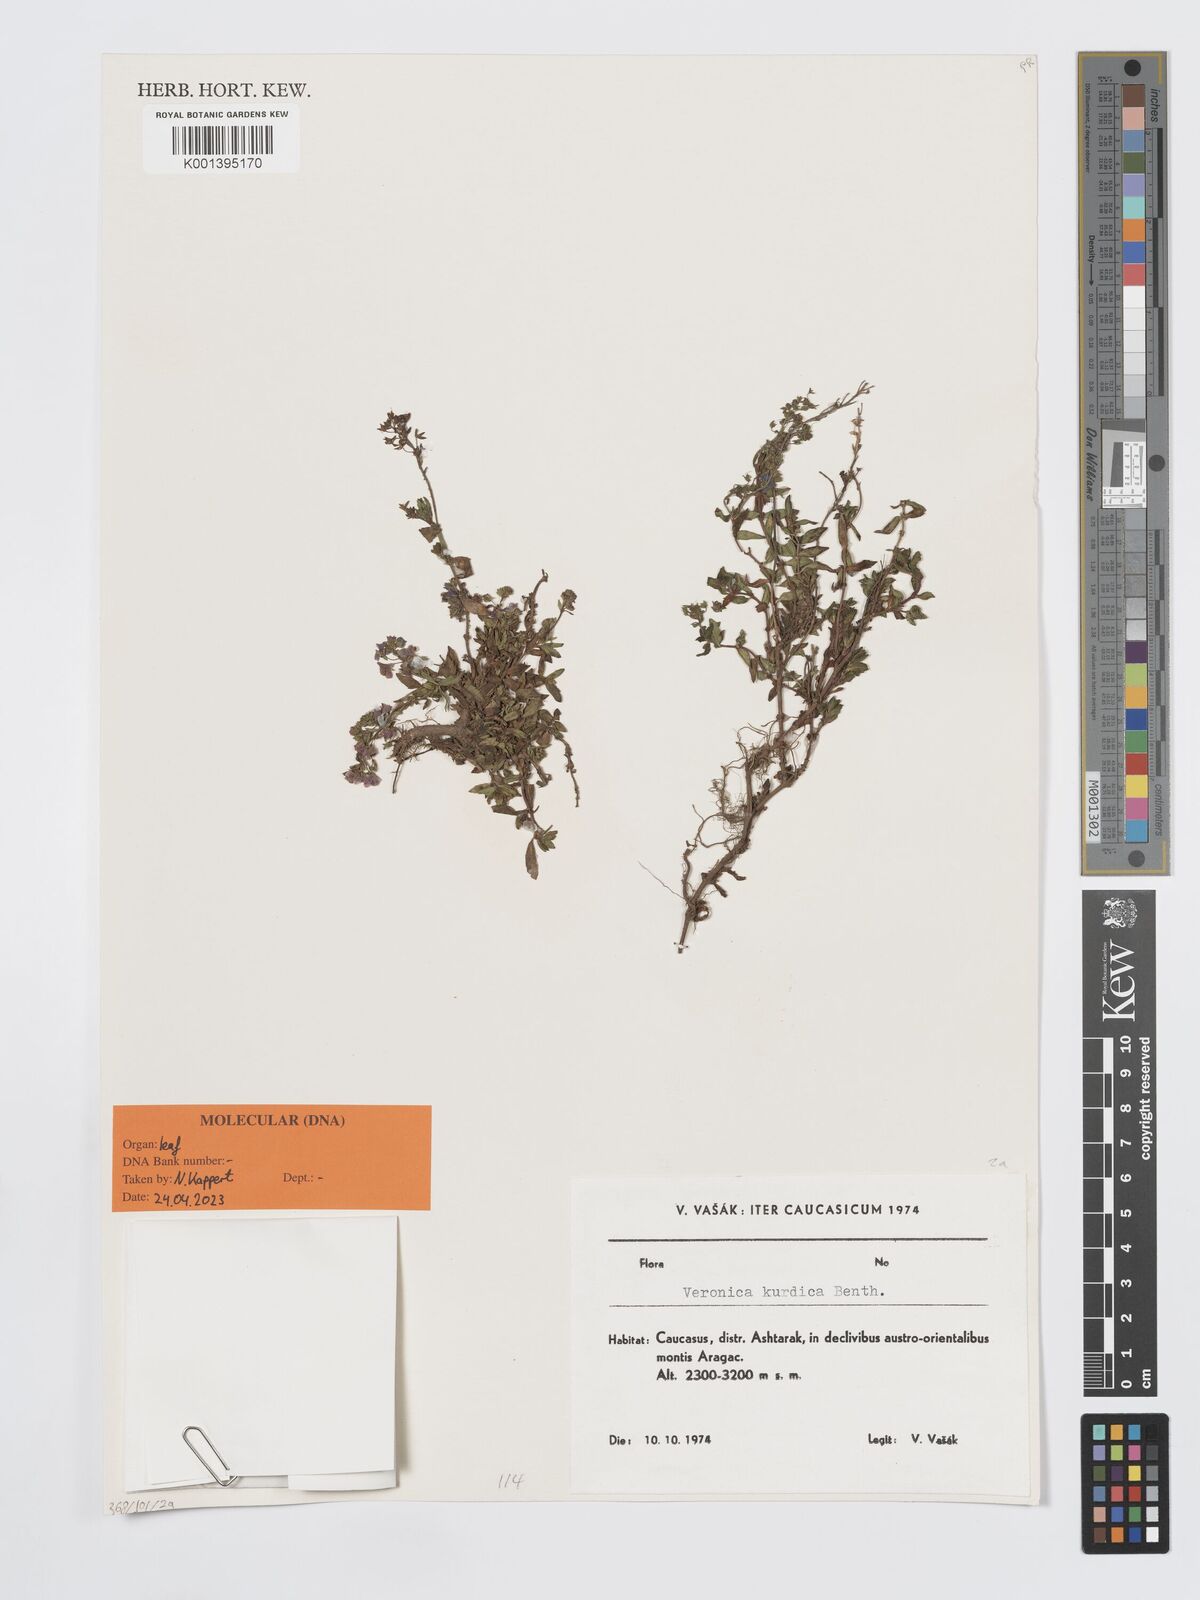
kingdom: Plantae
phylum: Tracheophyta
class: Magnoliopsida
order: Lamiales
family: Plantaginaceae
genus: Veronica
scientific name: Veronica kurdica
